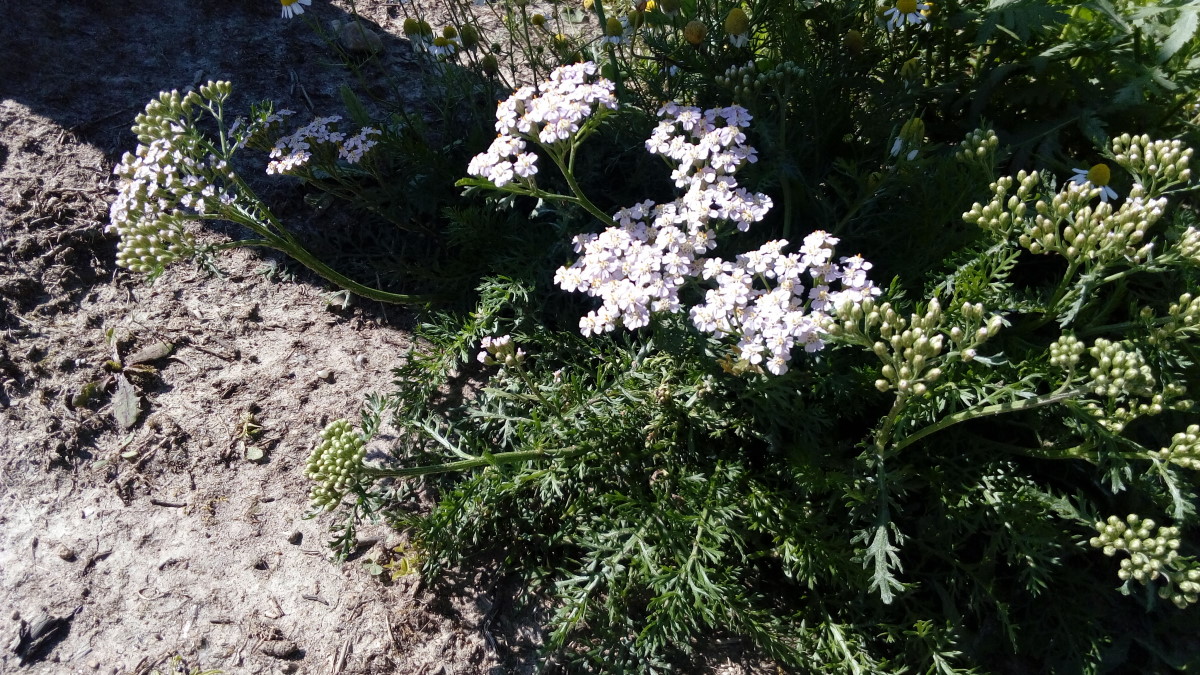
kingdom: Plantae
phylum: Tracheophyta
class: Magnoliopsida
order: Asterales
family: Asteraceae
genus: Achillea
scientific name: Achillea millefolium
